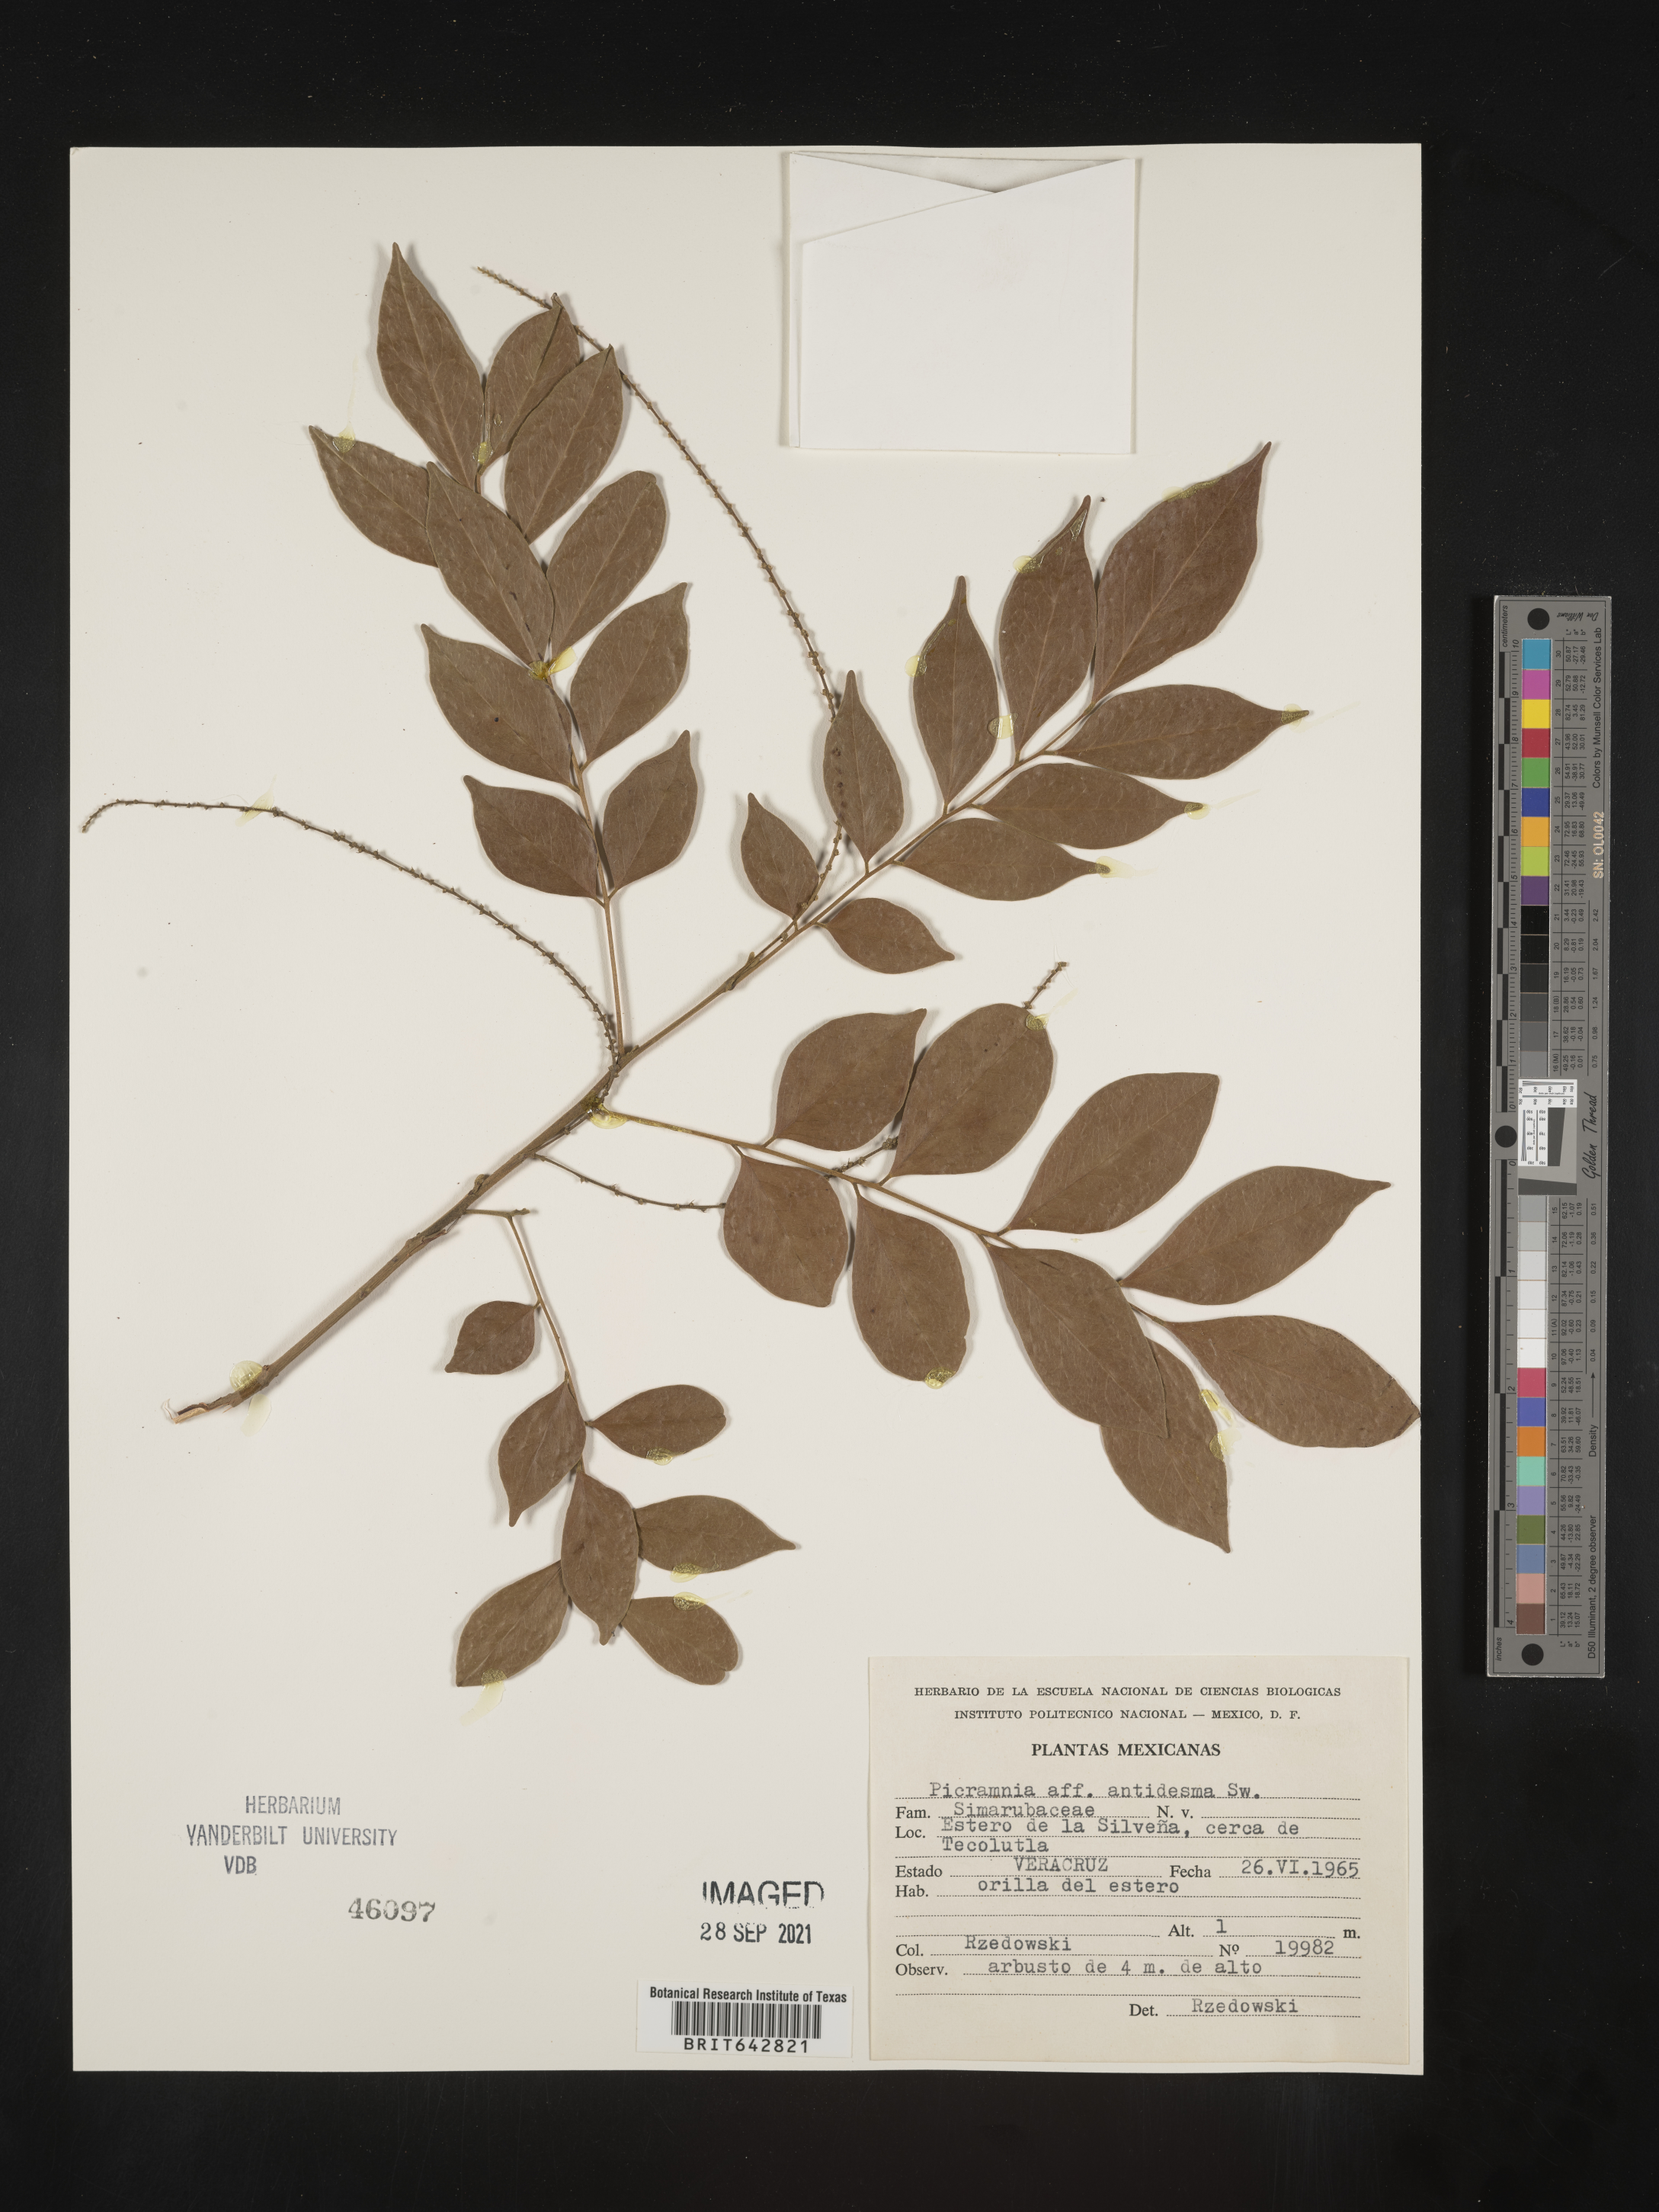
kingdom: Plantae
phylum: Tracheophyta
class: Magnoliopsida
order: Picramniales
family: Picramniaceae
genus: Picramnia
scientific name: Picramnia
